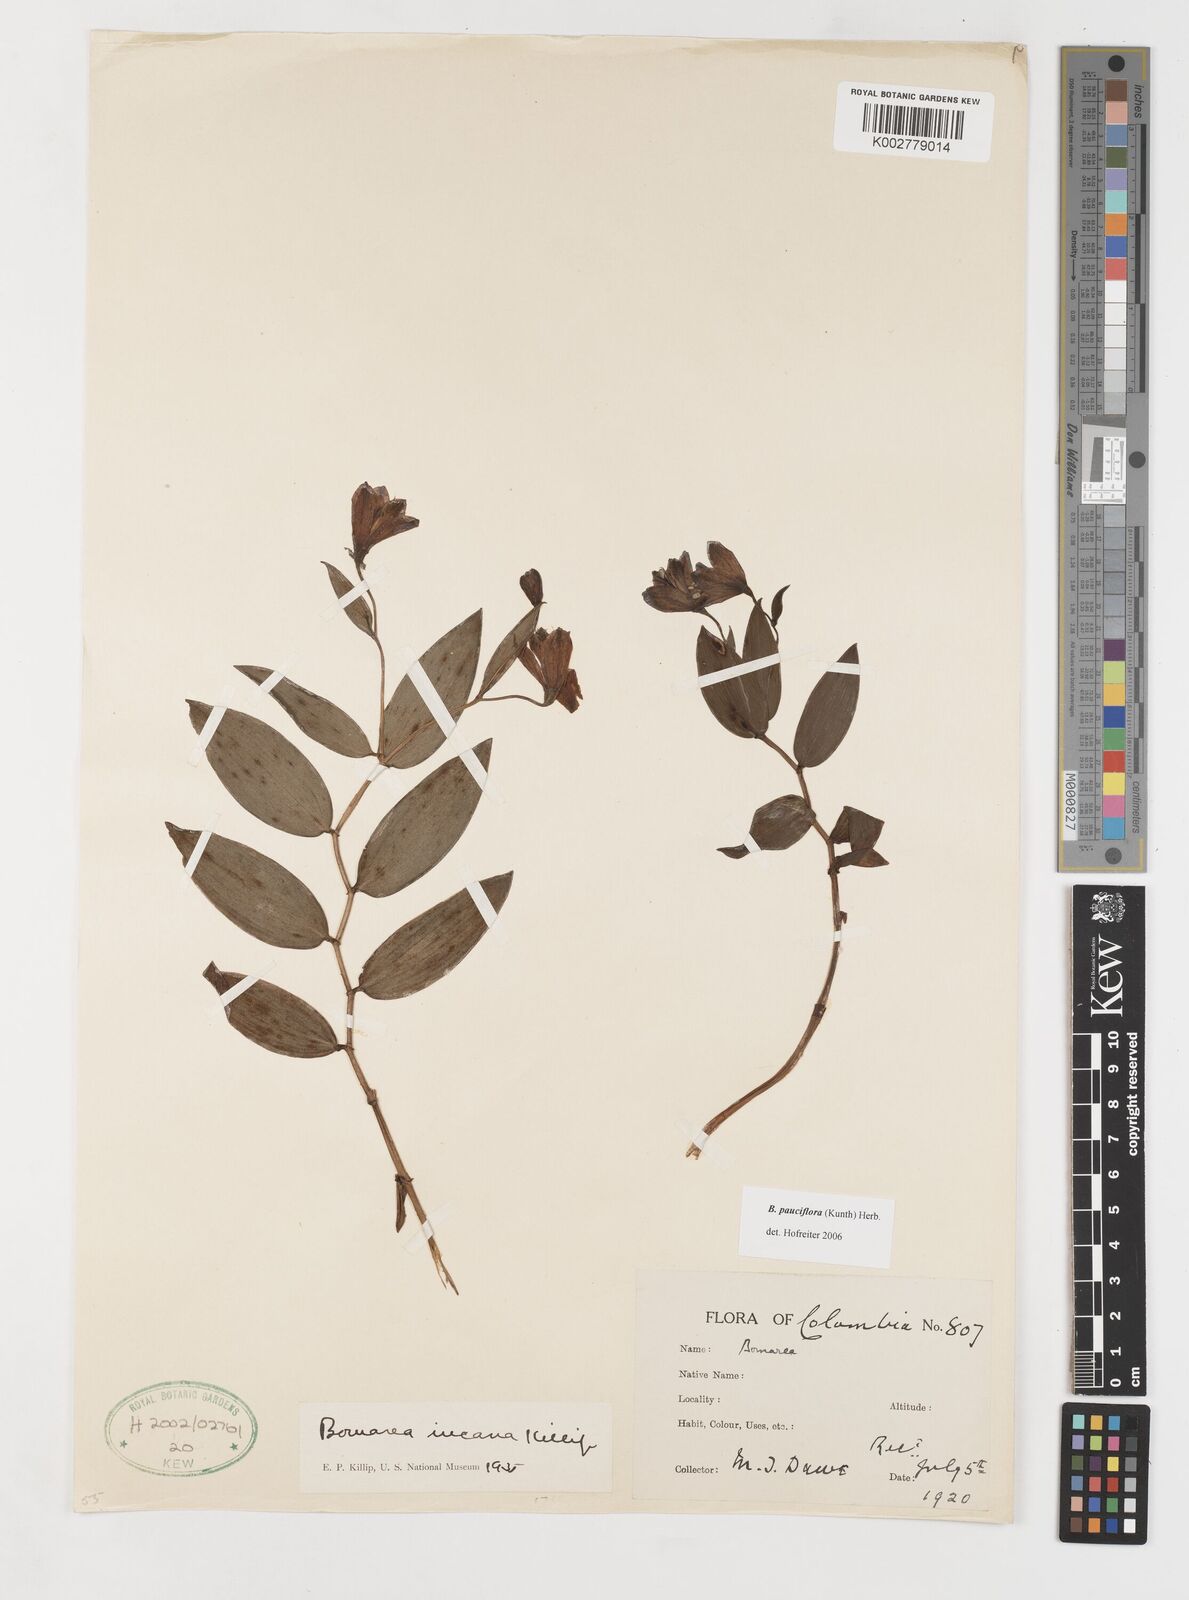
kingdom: Plantae
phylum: Tracheophyta
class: Liliopsida
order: Liliales
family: Alstroemeriaceae
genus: Bomarea
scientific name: Bomarea pauciflora
